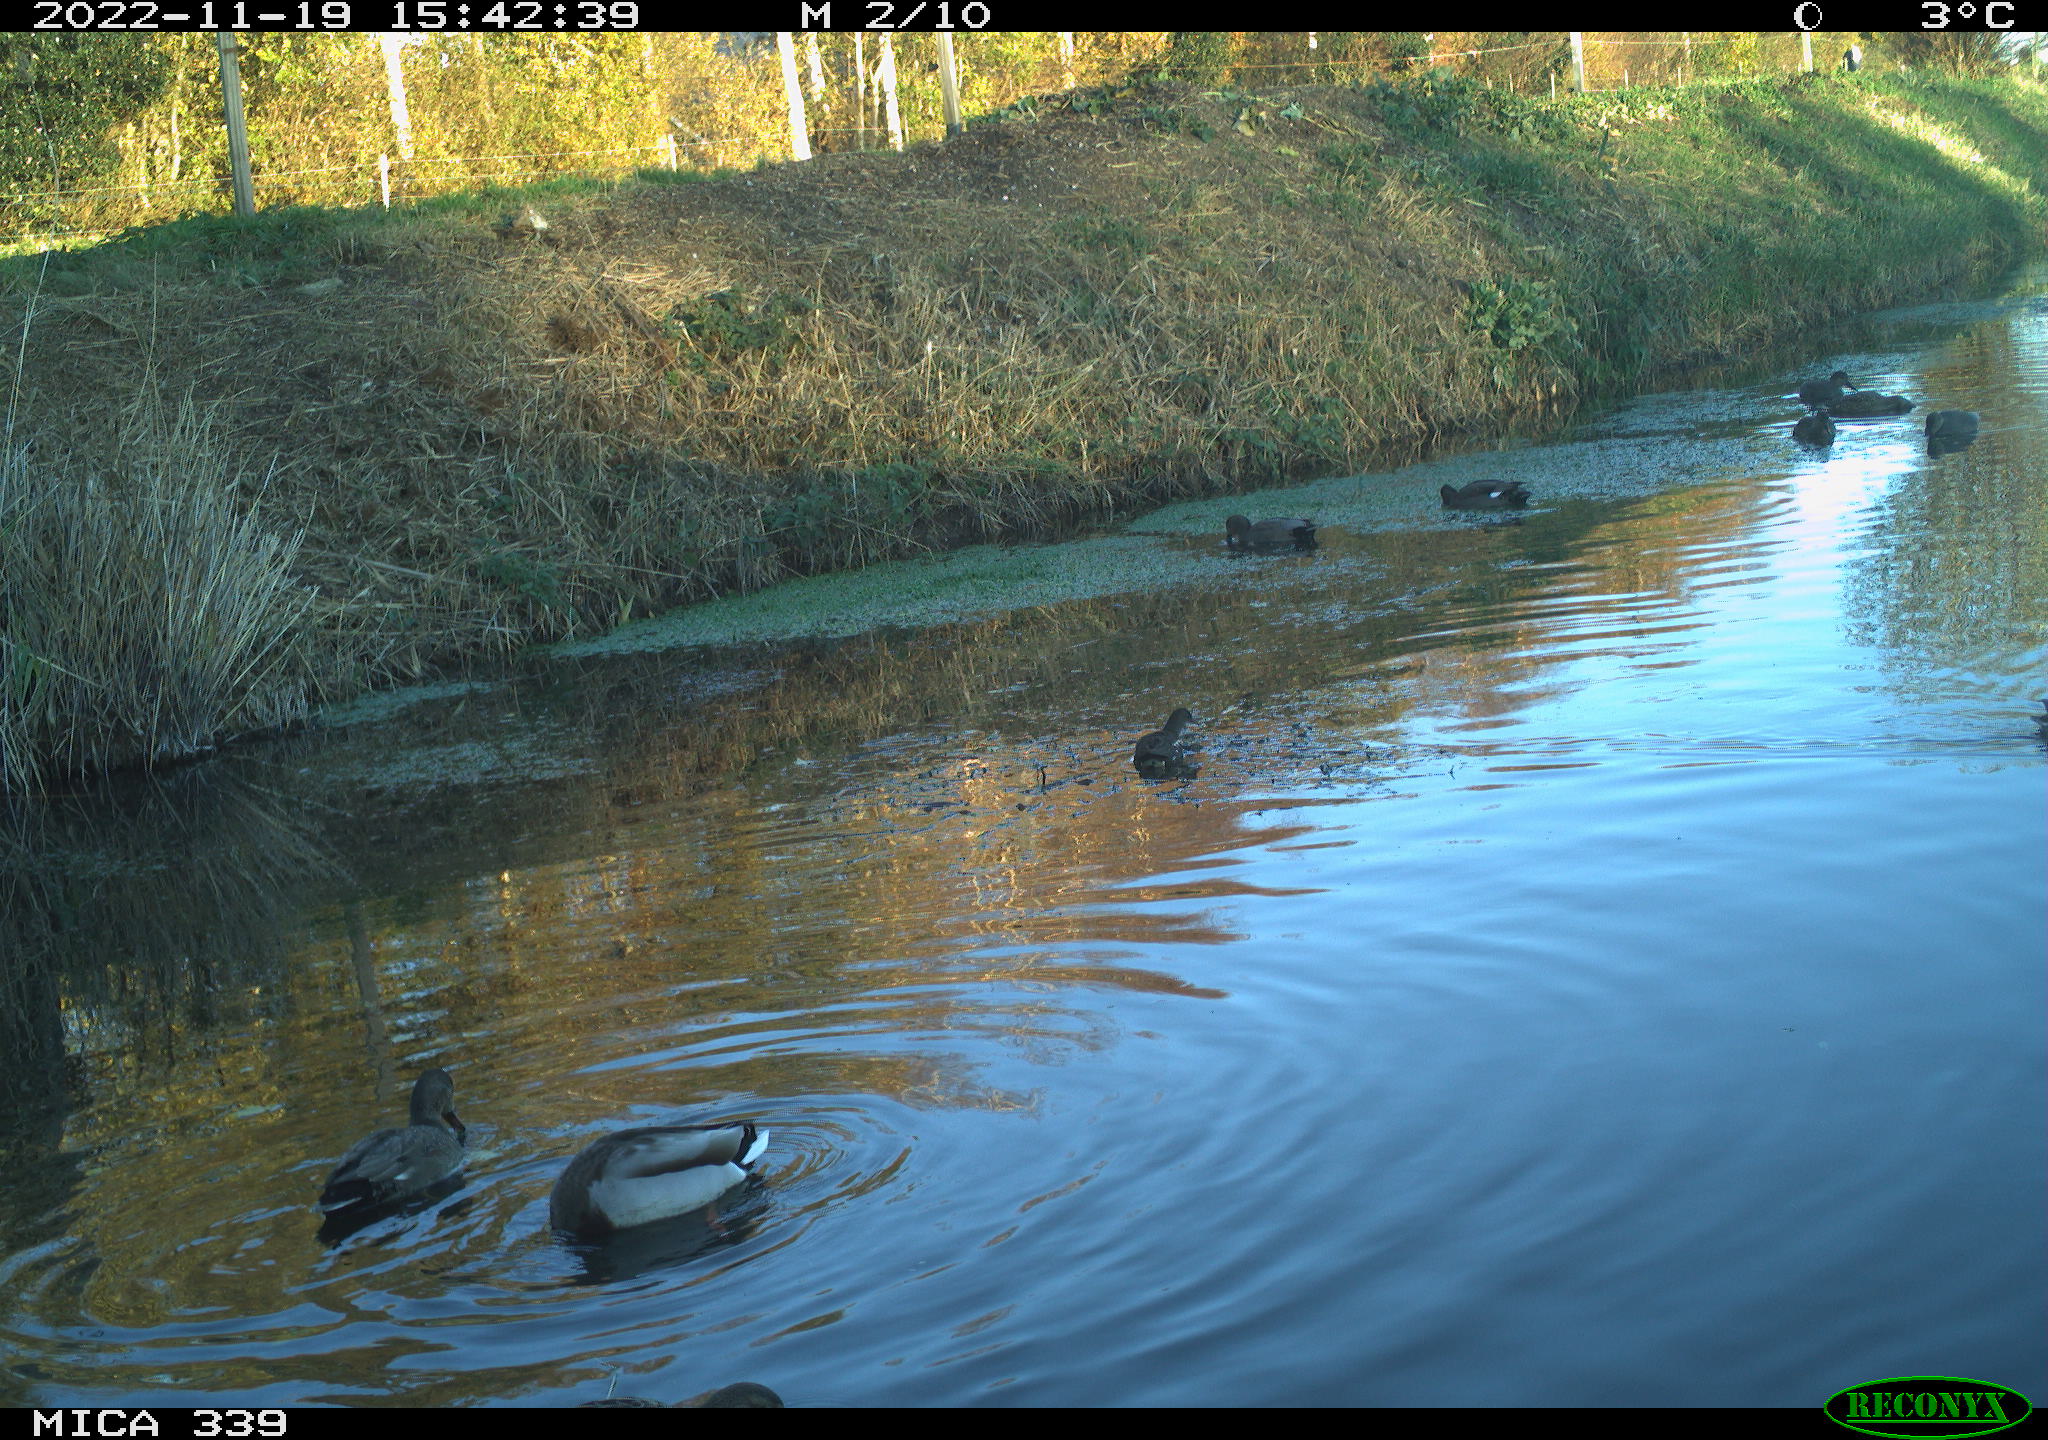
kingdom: Animalia
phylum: Chordata
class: Aves
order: Podicipediformes
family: Podicipedidae
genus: Tachybaptus
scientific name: Tachybaptus ruficollis
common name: Little grebe
